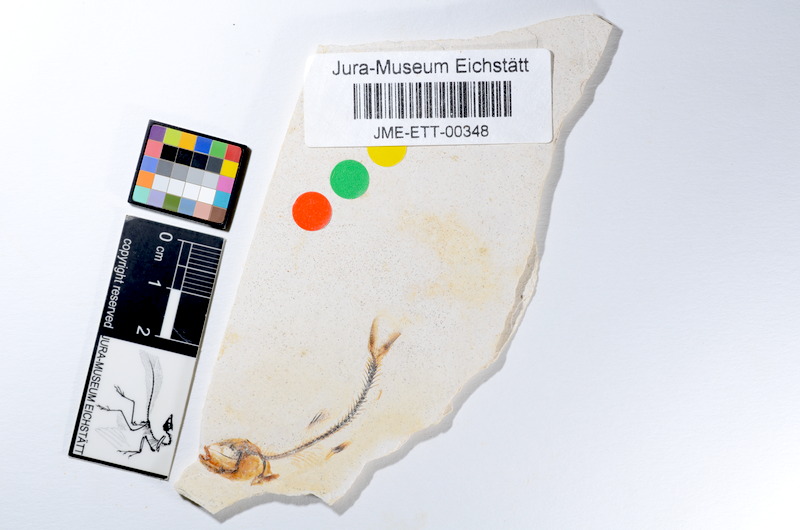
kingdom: Animalia
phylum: Chordata
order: Salmoniformes
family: Orthogonikleithridae
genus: Orthogonikleithrus
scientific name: Orthogonikleithrus hoelli
